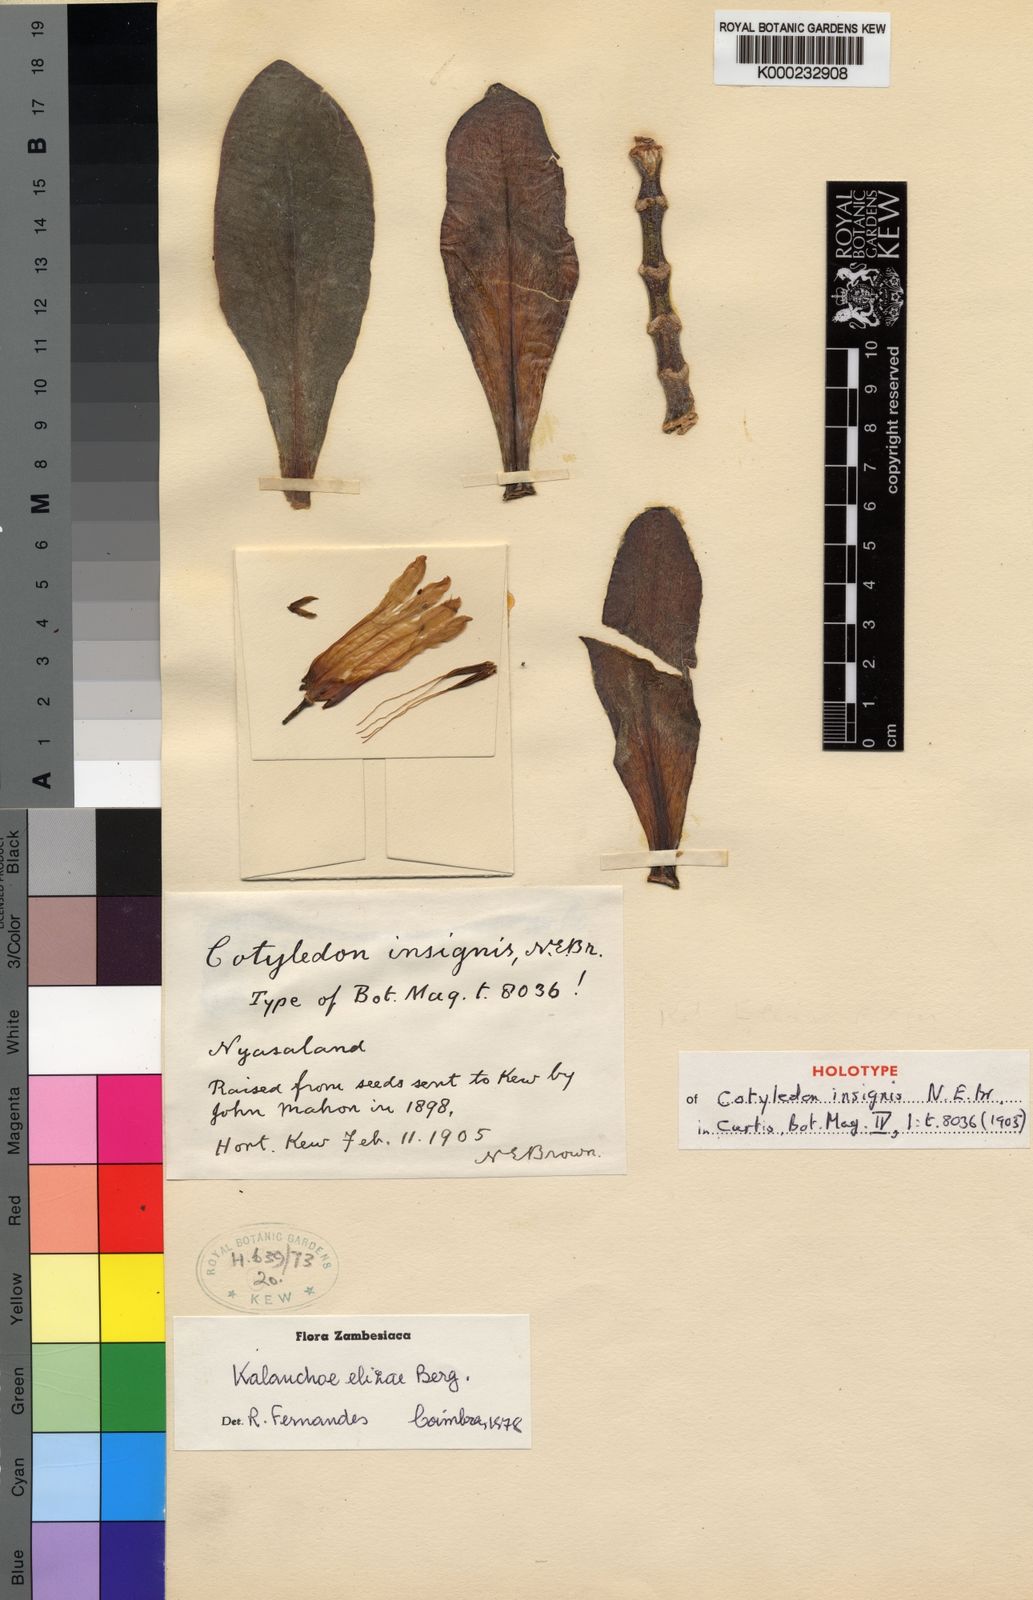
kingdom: Plantae
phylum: Tracheophyta
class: Magnoliopsida
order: Saxifragales
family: Crassulaceae
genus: Kalanchoe
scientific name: Kalanchoe elizae
